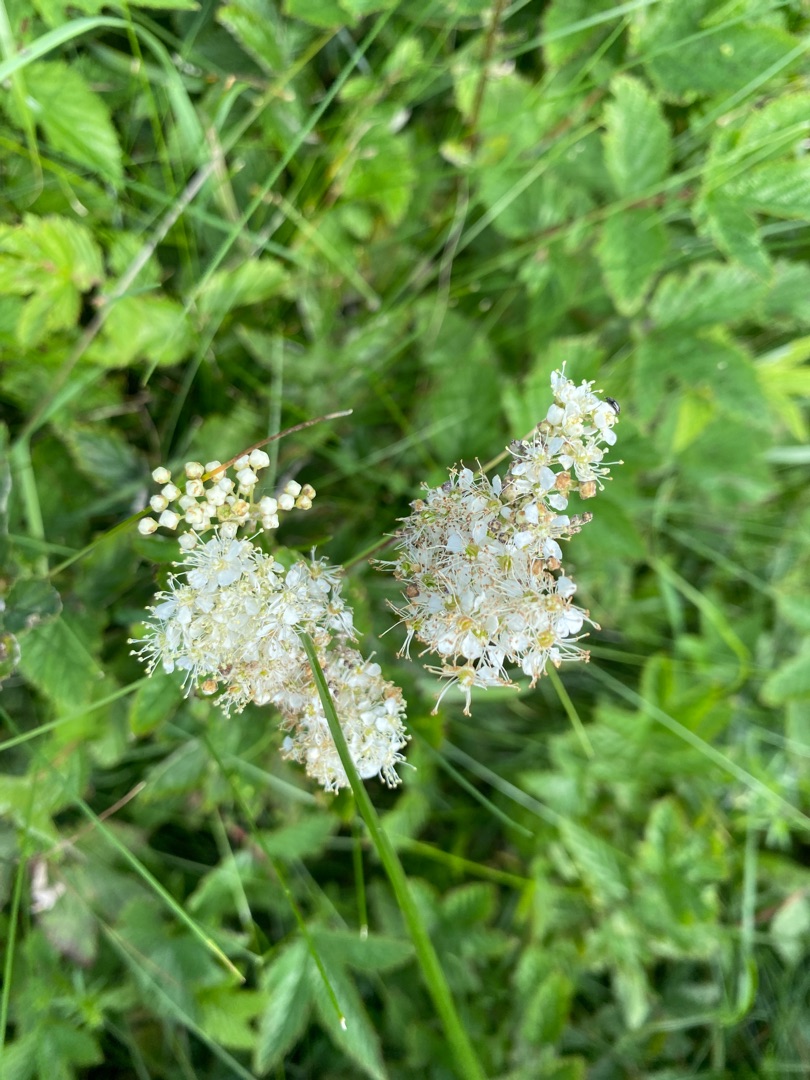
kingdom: Plantae
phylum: Tracheophyta
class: Magnoliopsida
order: Rosales
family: Rosaceae
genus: Filipendula
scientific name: Filipendula ulmaria
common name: Almindelig mjødurt
